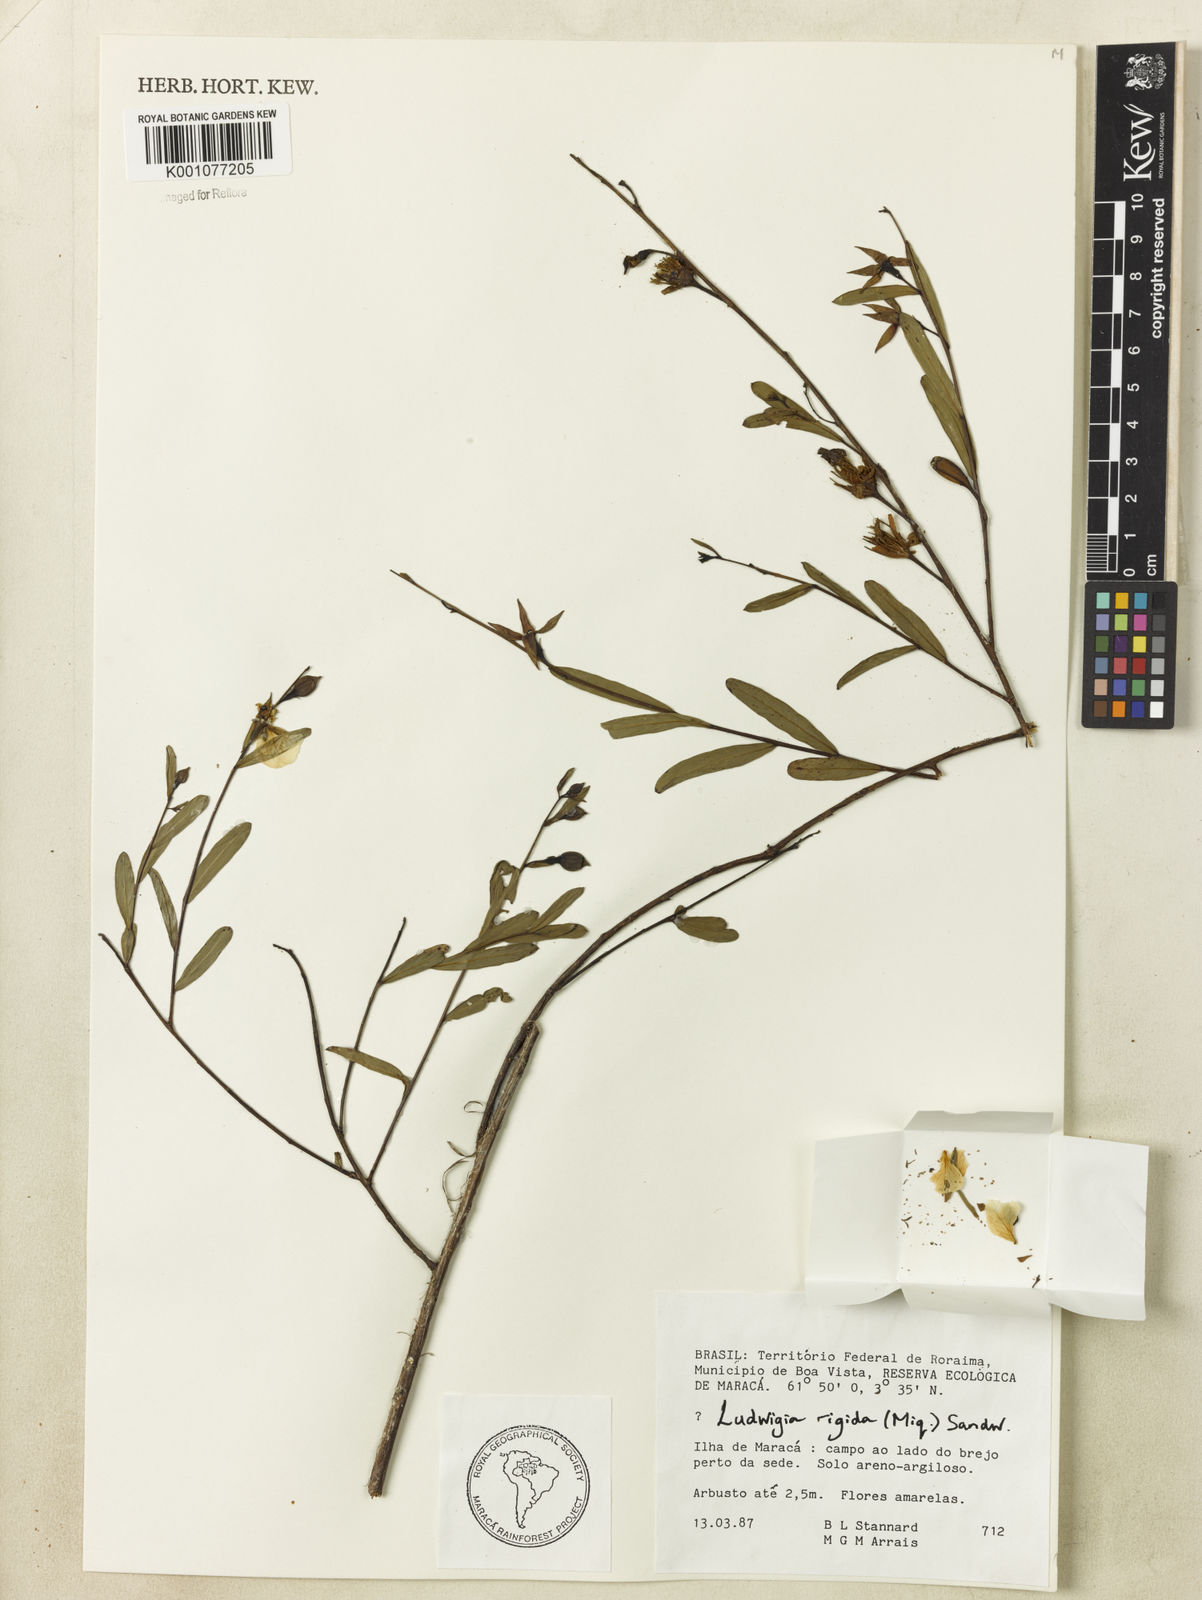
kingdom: Plantae
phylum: Tracheophyta
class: Magnoliopsida
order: Myrtales
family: Onagraceae
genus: Ludwigia
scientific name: Ludwigia rigida
